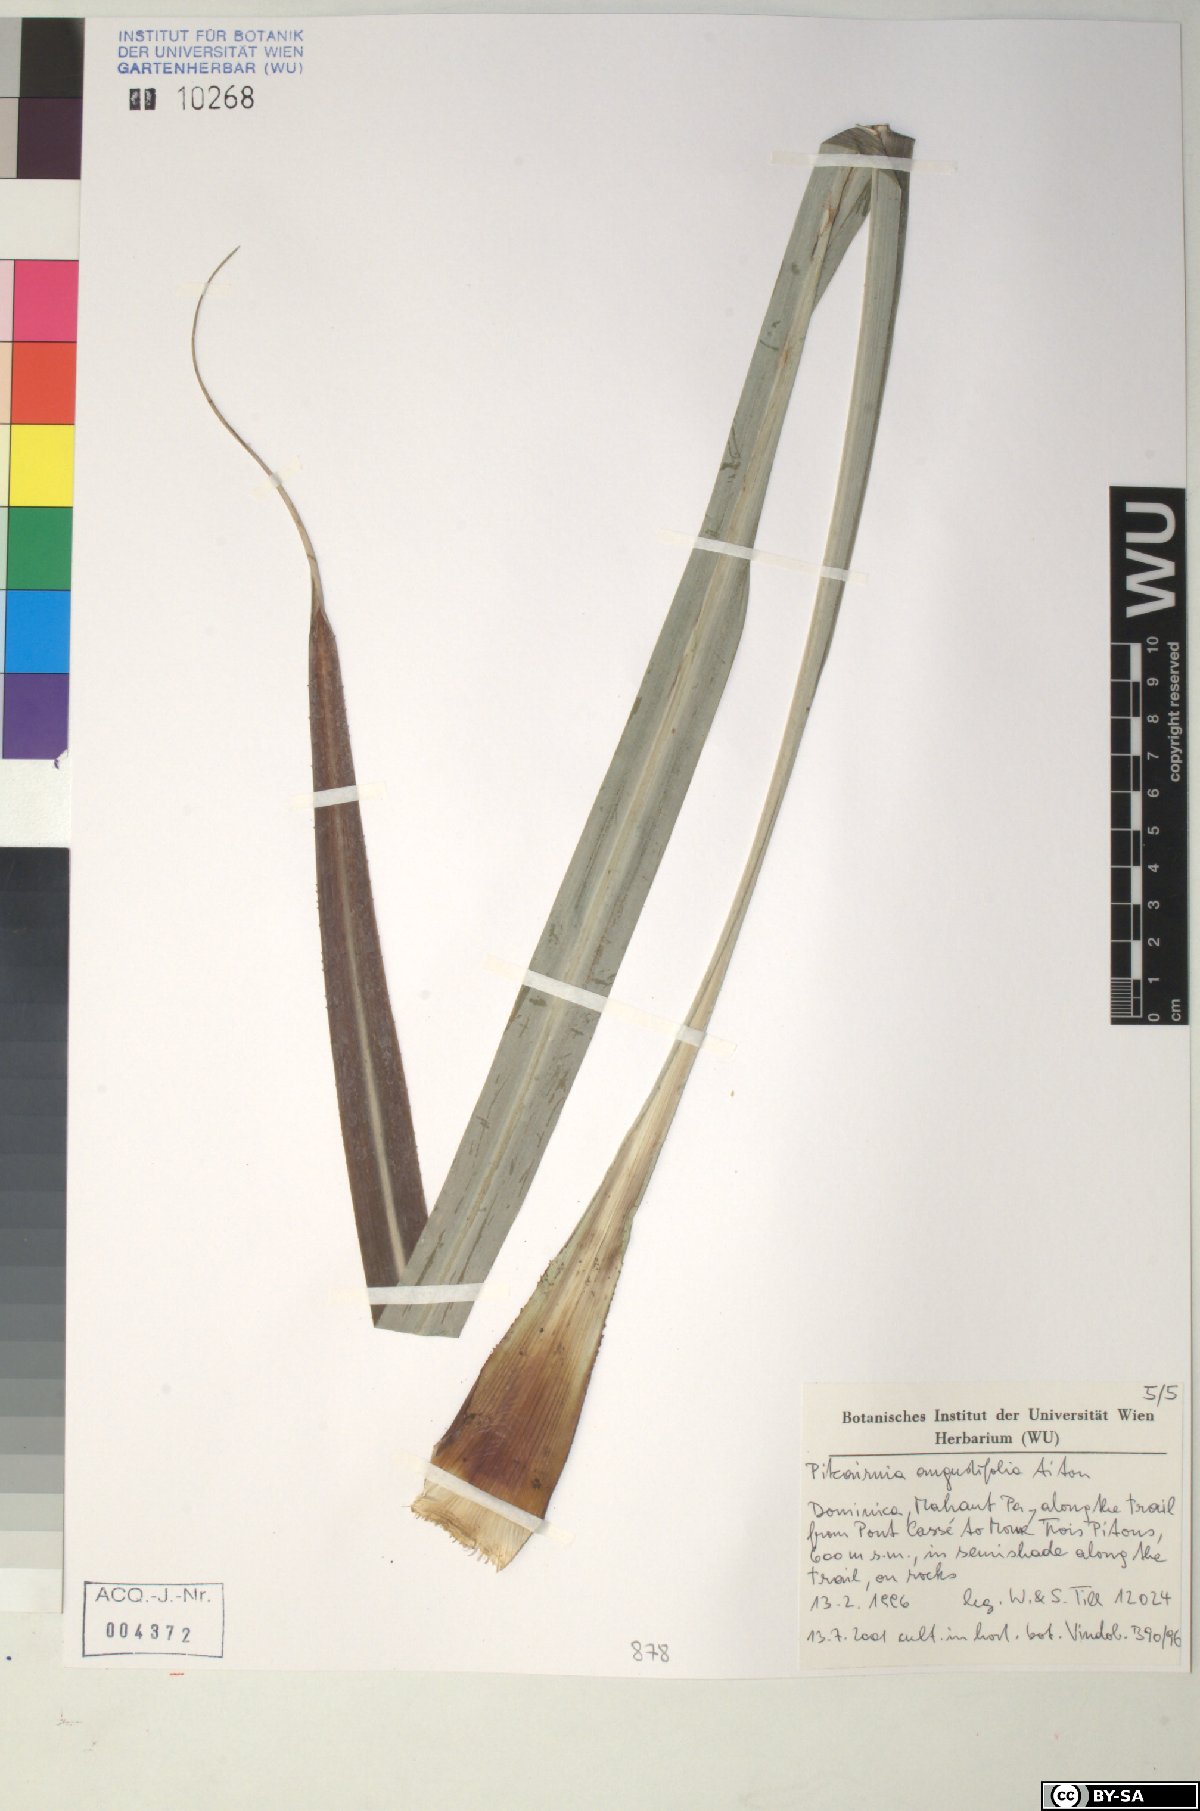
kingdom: Plantae
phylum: Tracheophyta
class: Liliopsida
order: Poales
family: Bromeliaceae
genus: Pitcairnia
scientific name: Pitcairnia angustifolia
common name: Clapper
